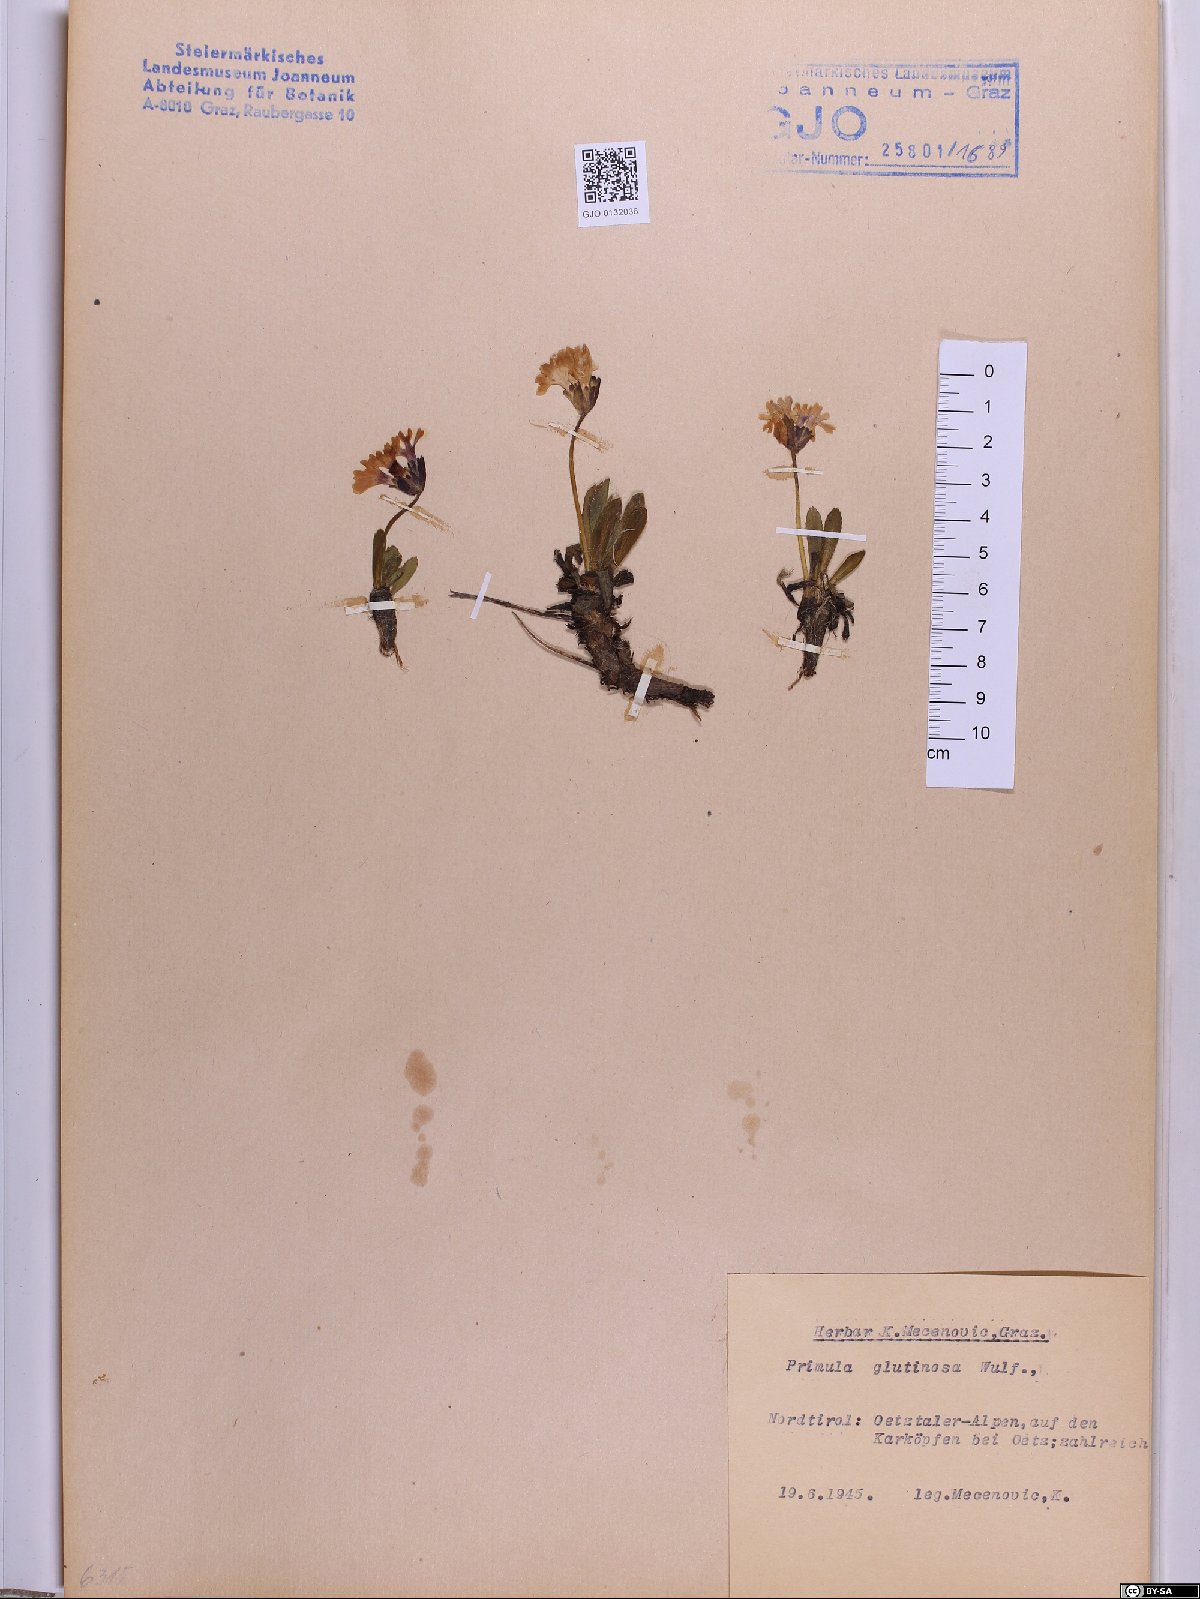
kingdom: Plantae
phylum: Tracheophyta
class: Magnoliopsida
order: Ericales
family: Primulaceae
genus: Primula
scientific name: Primula glutinosa
